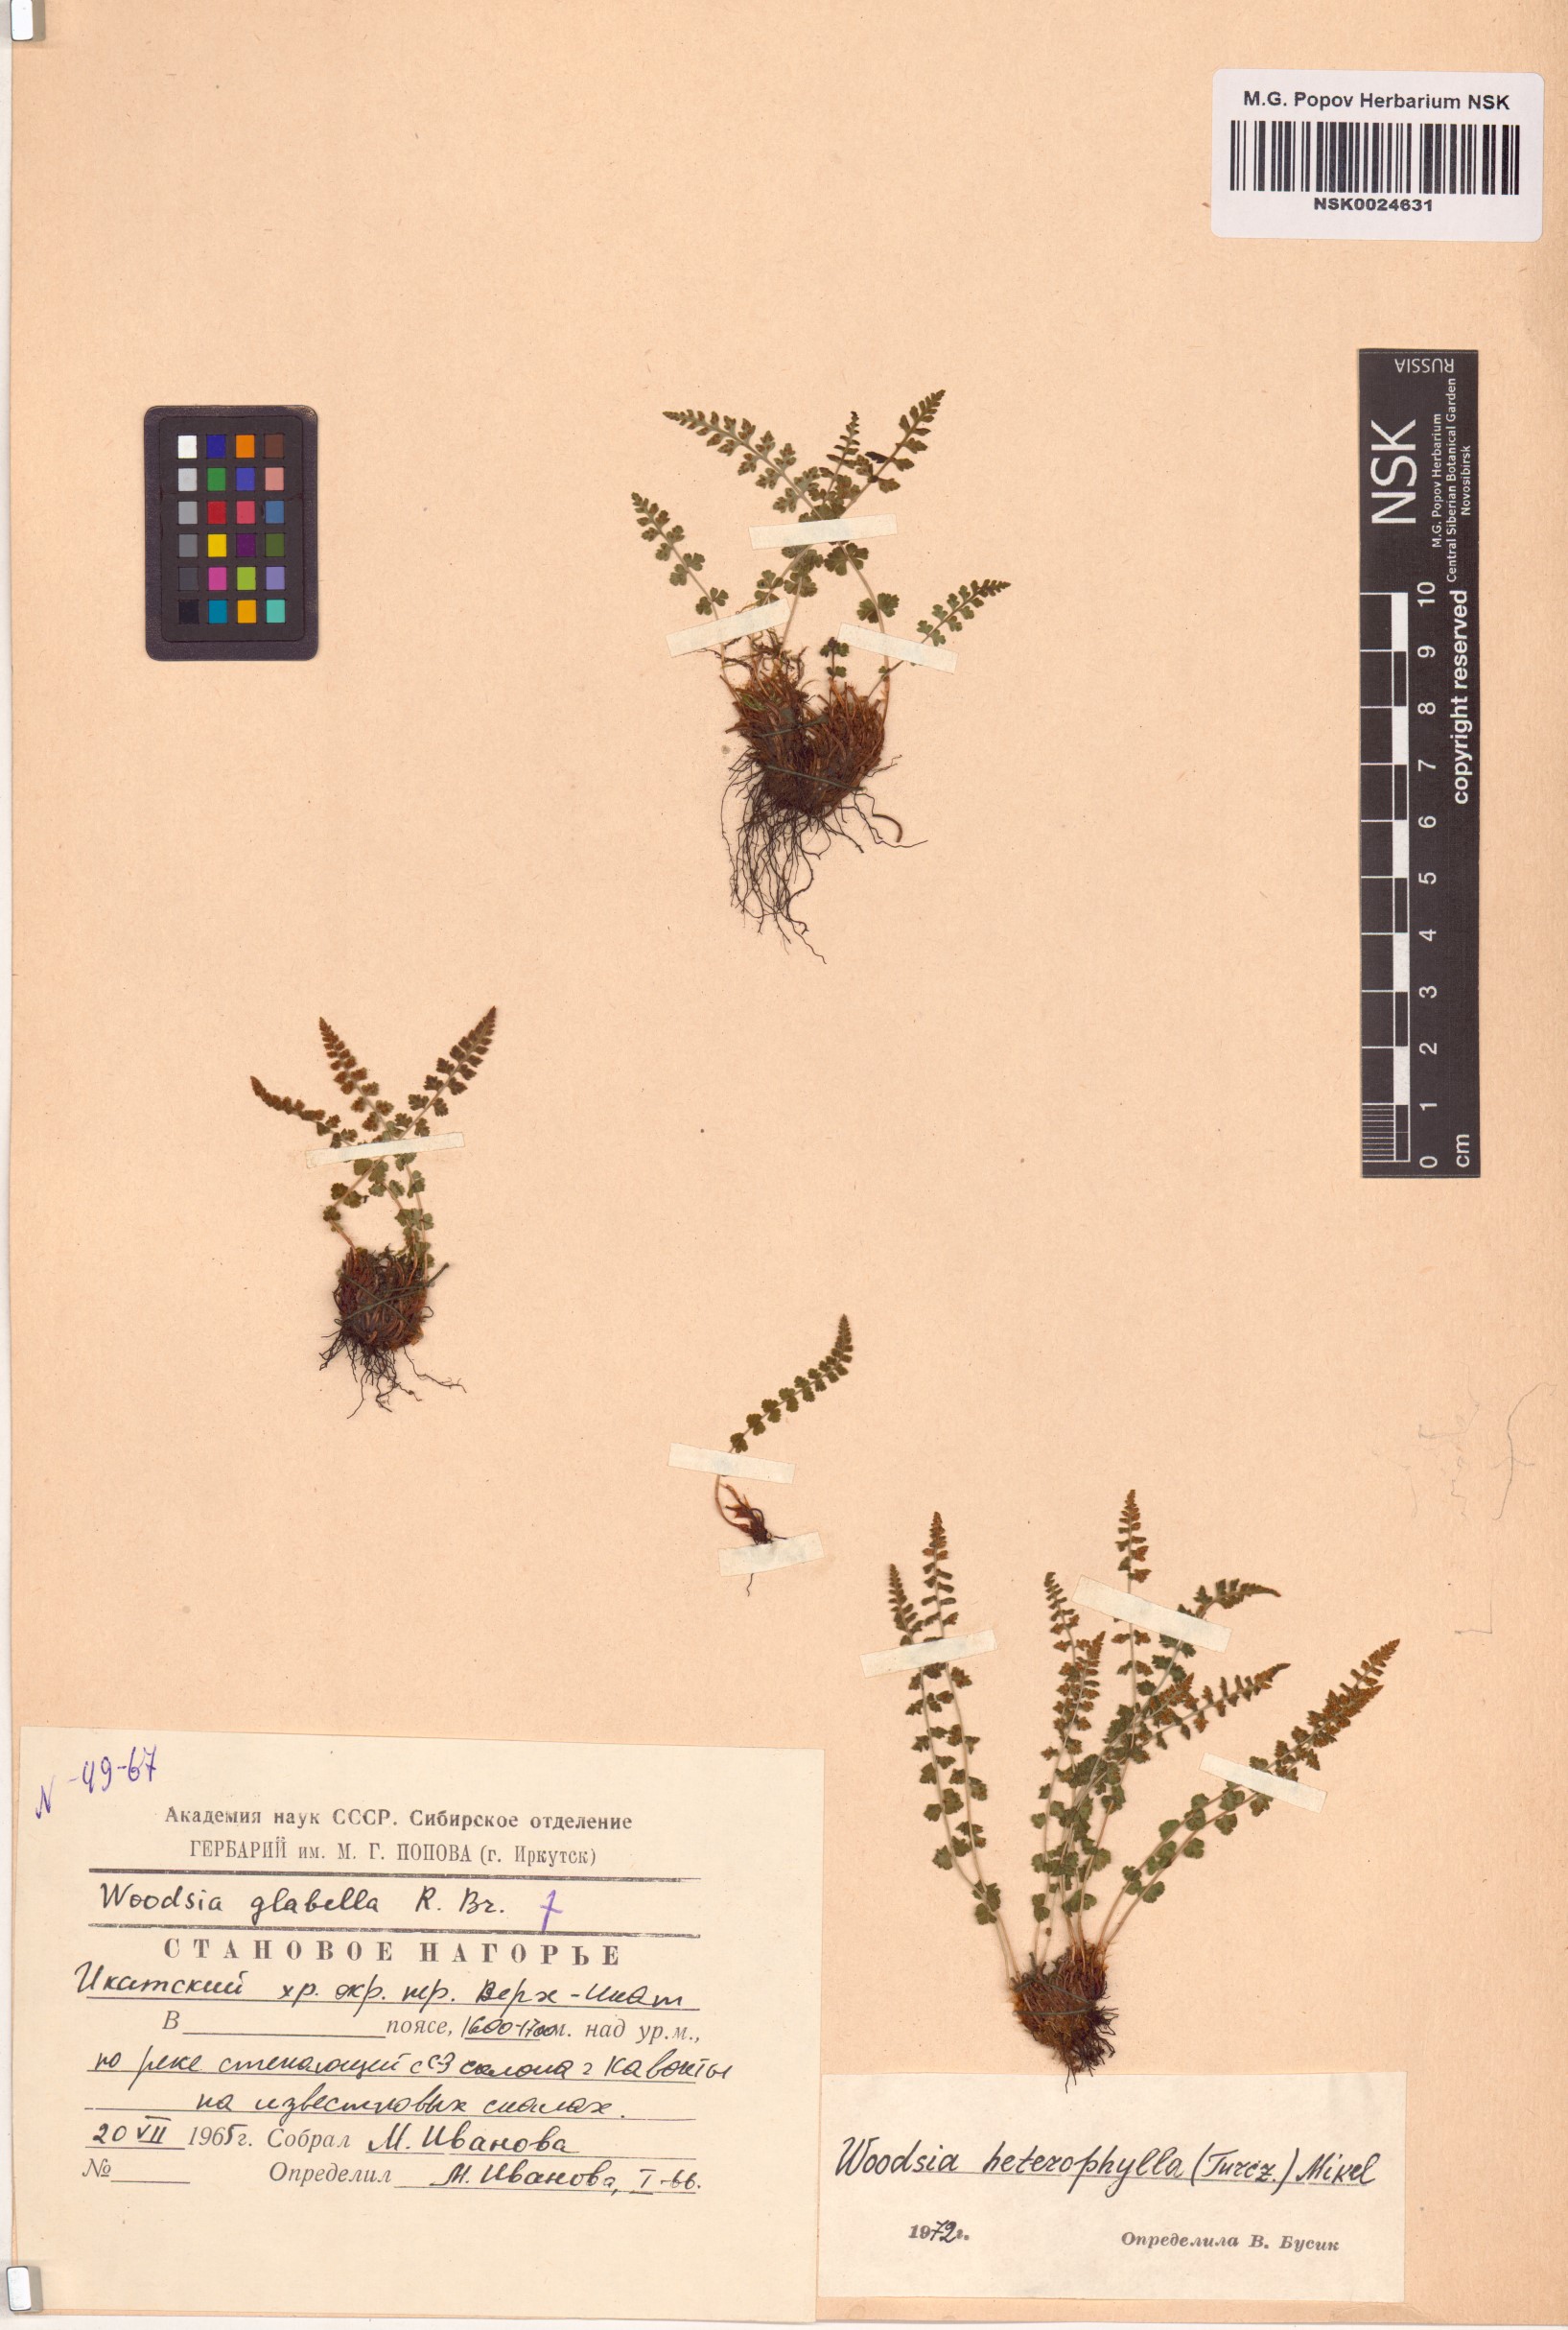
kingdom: Plantae
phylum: Tracheophyta
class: Polypodiopsida
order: Polypodiales
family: Woodsiaceae
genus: Woodsia
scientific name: Woodsia pulchella
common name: Graceful woodsia
